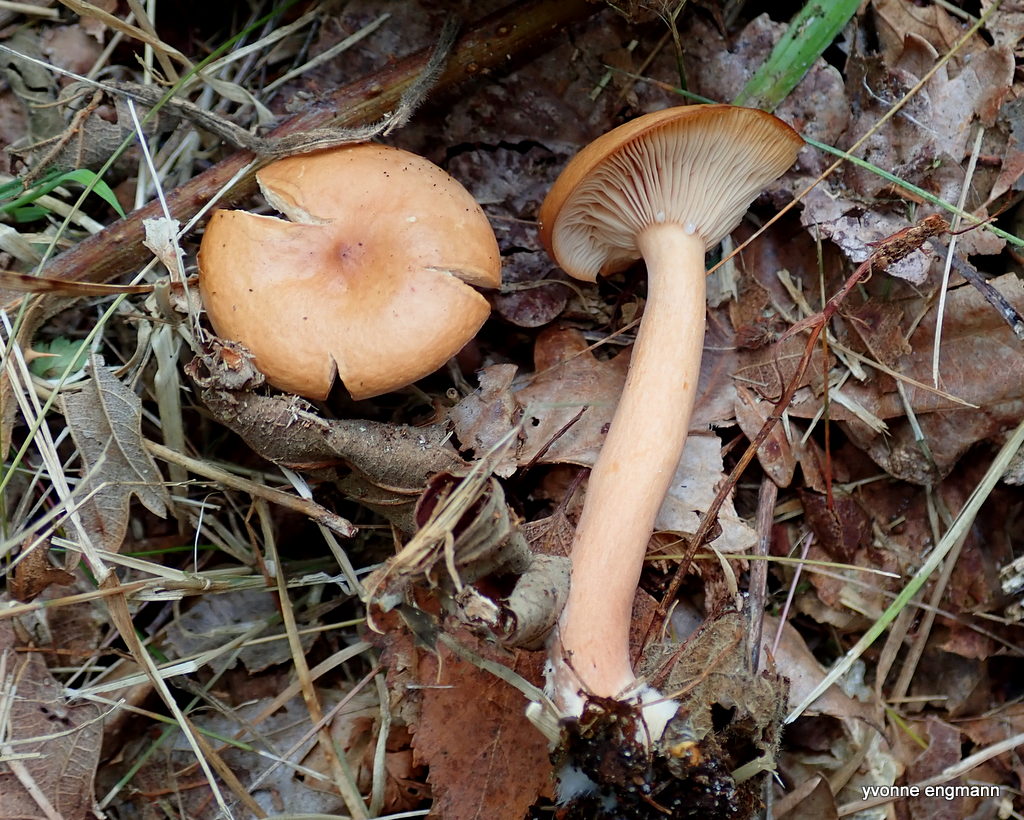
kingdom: Fungi
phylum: Basidiomycota
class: Agaricomycetes
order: Russulales
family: Russulaceae
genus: Lactarius
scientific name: Lactarius
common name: mælkehat
